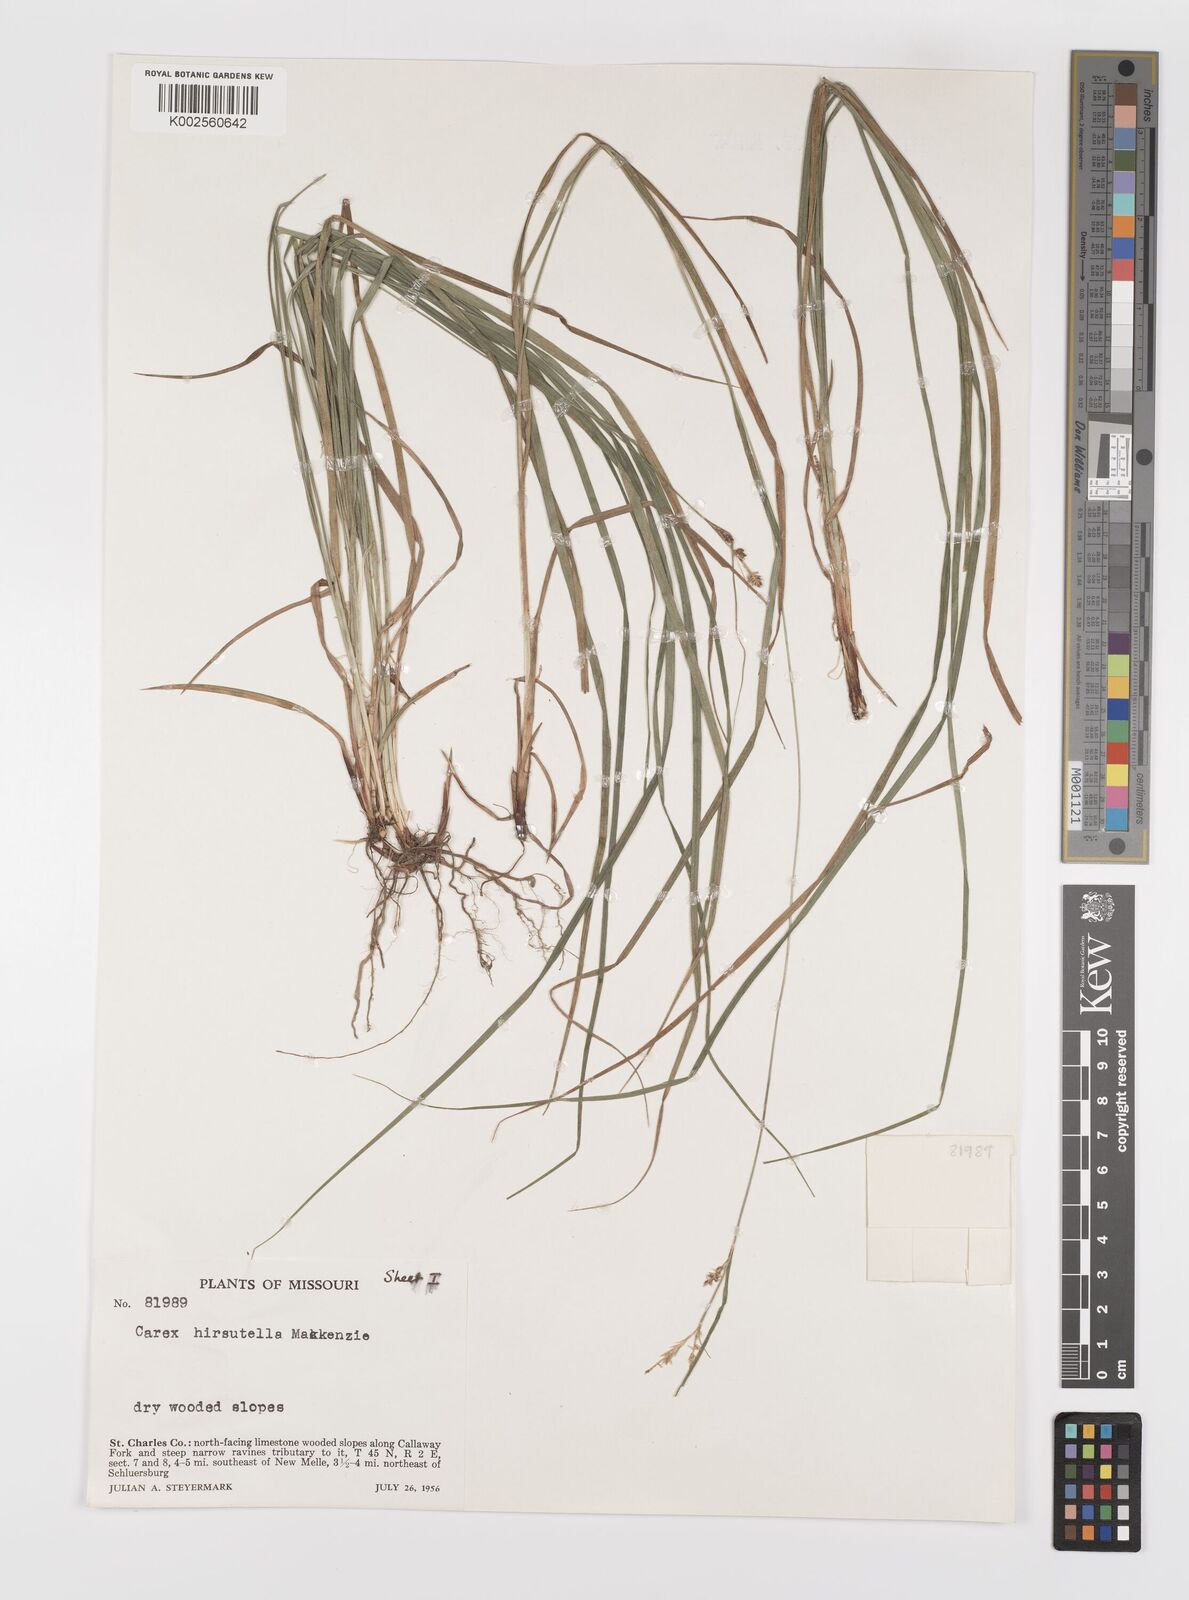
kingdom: Plantae
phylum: Tracheophyta
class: Liliopsida
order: Poales
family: Cyperaceae
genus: Carex
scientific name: Carex hirsutella
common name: Fuzzy wuzzy sedge
